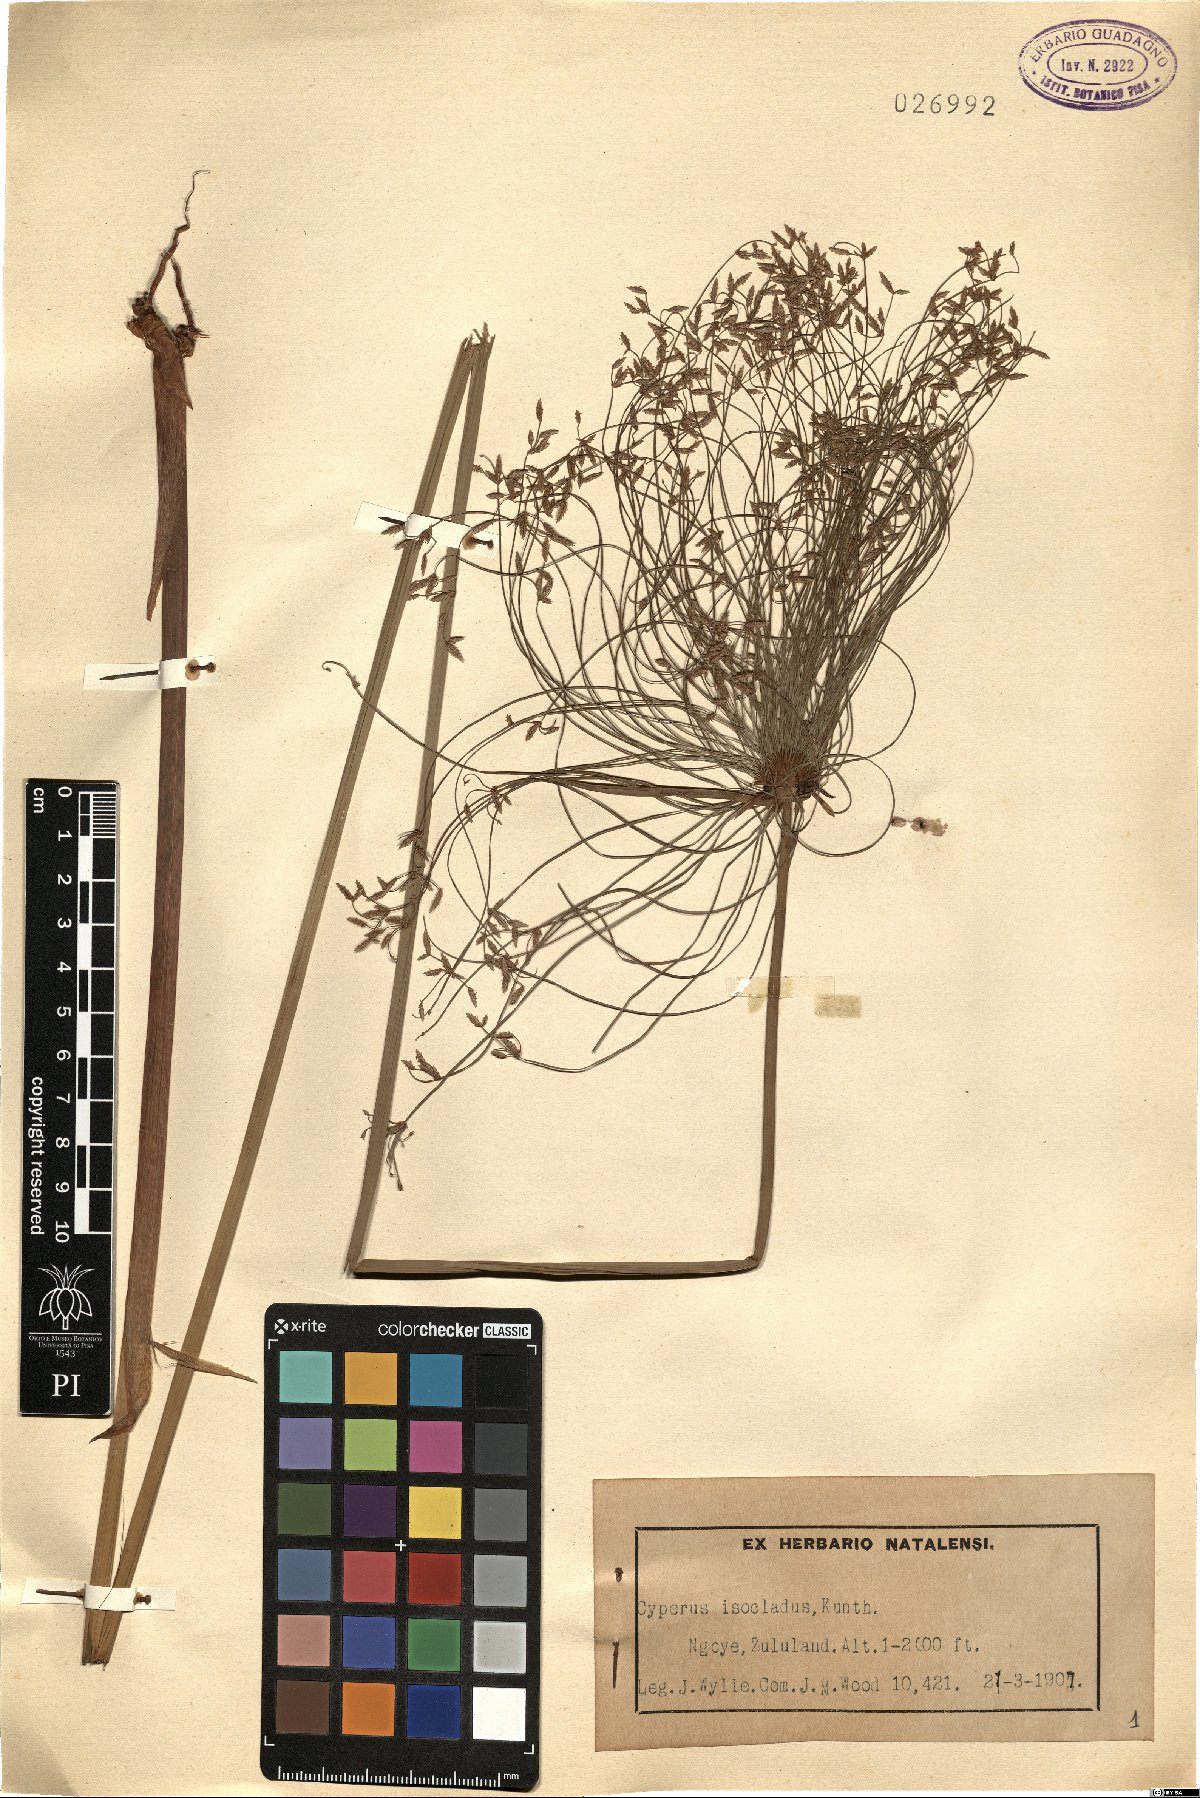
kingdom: Plantae
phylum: Tracheophyta
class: Liliopsida
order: Poales
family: Cyperaceae
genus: Cyperus
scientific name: Cyperus prolifer
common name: Miniature flatsedge
